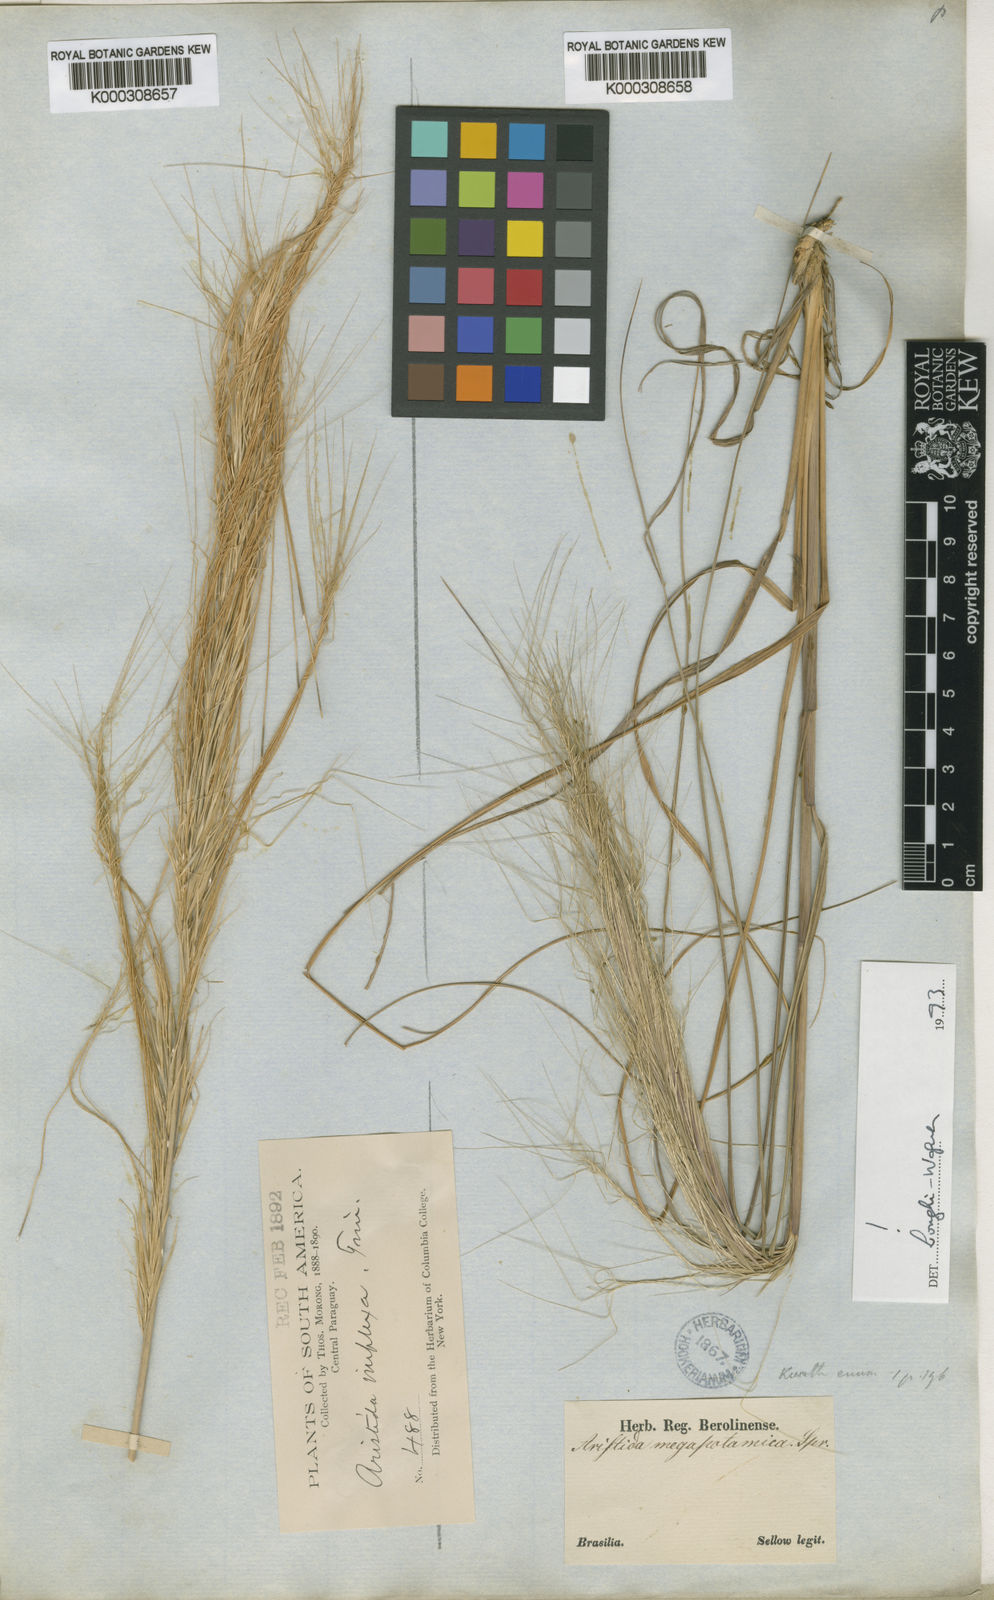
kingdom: Plantae
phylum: Tracheophyta
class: Liliopsida
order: Poales
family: Poaceae
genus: Aristida
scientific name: Aristida megapotamica
